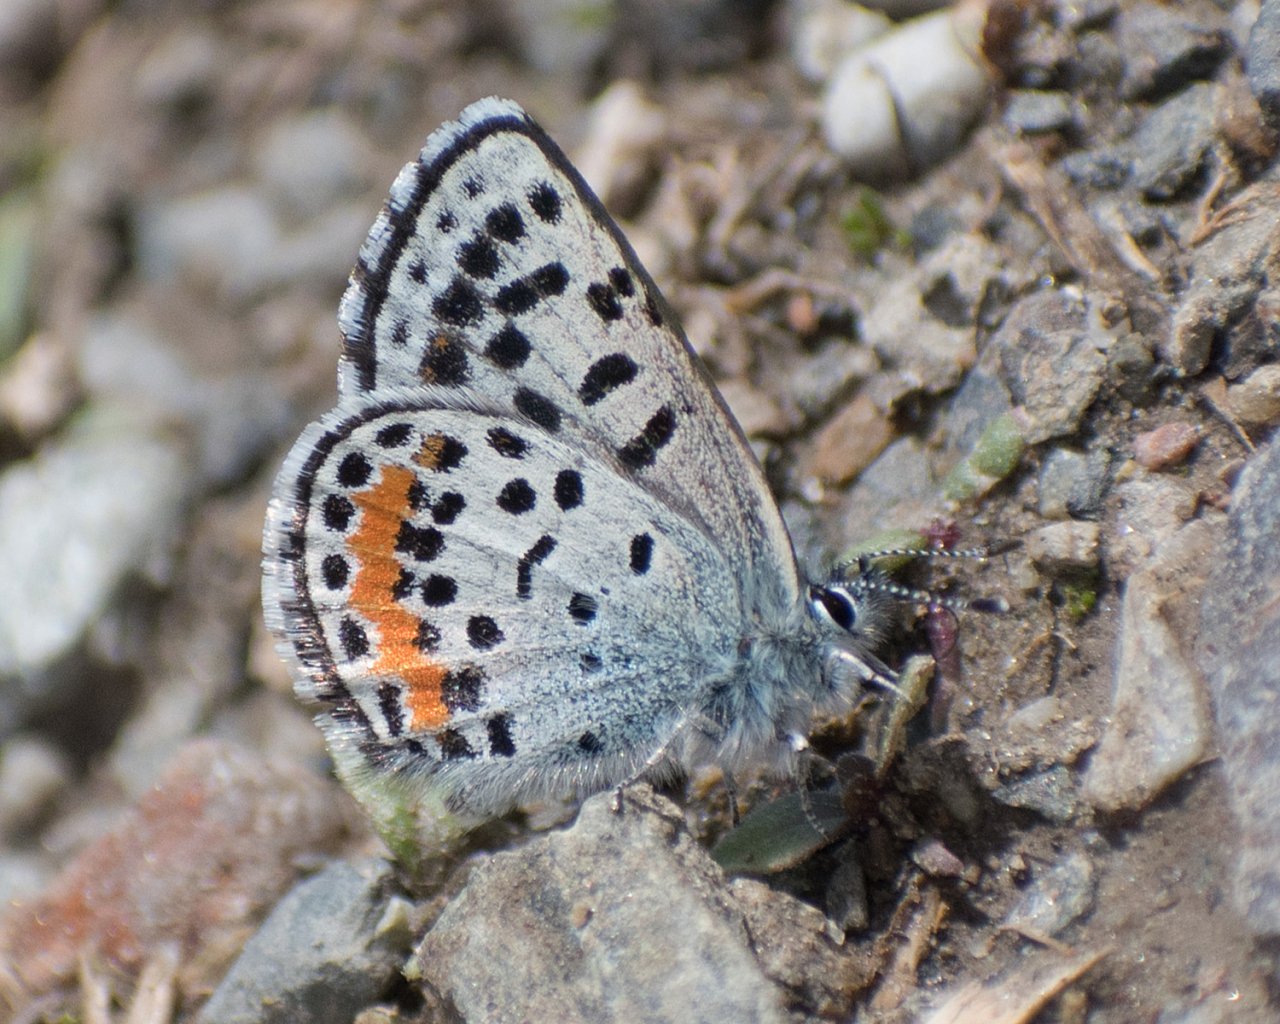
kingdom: Animalia
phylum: Arthropoda
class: Insecta
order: Lepidoptera
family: Lycaenidae
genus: Euphilotes
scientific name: Euphilotes battoides
